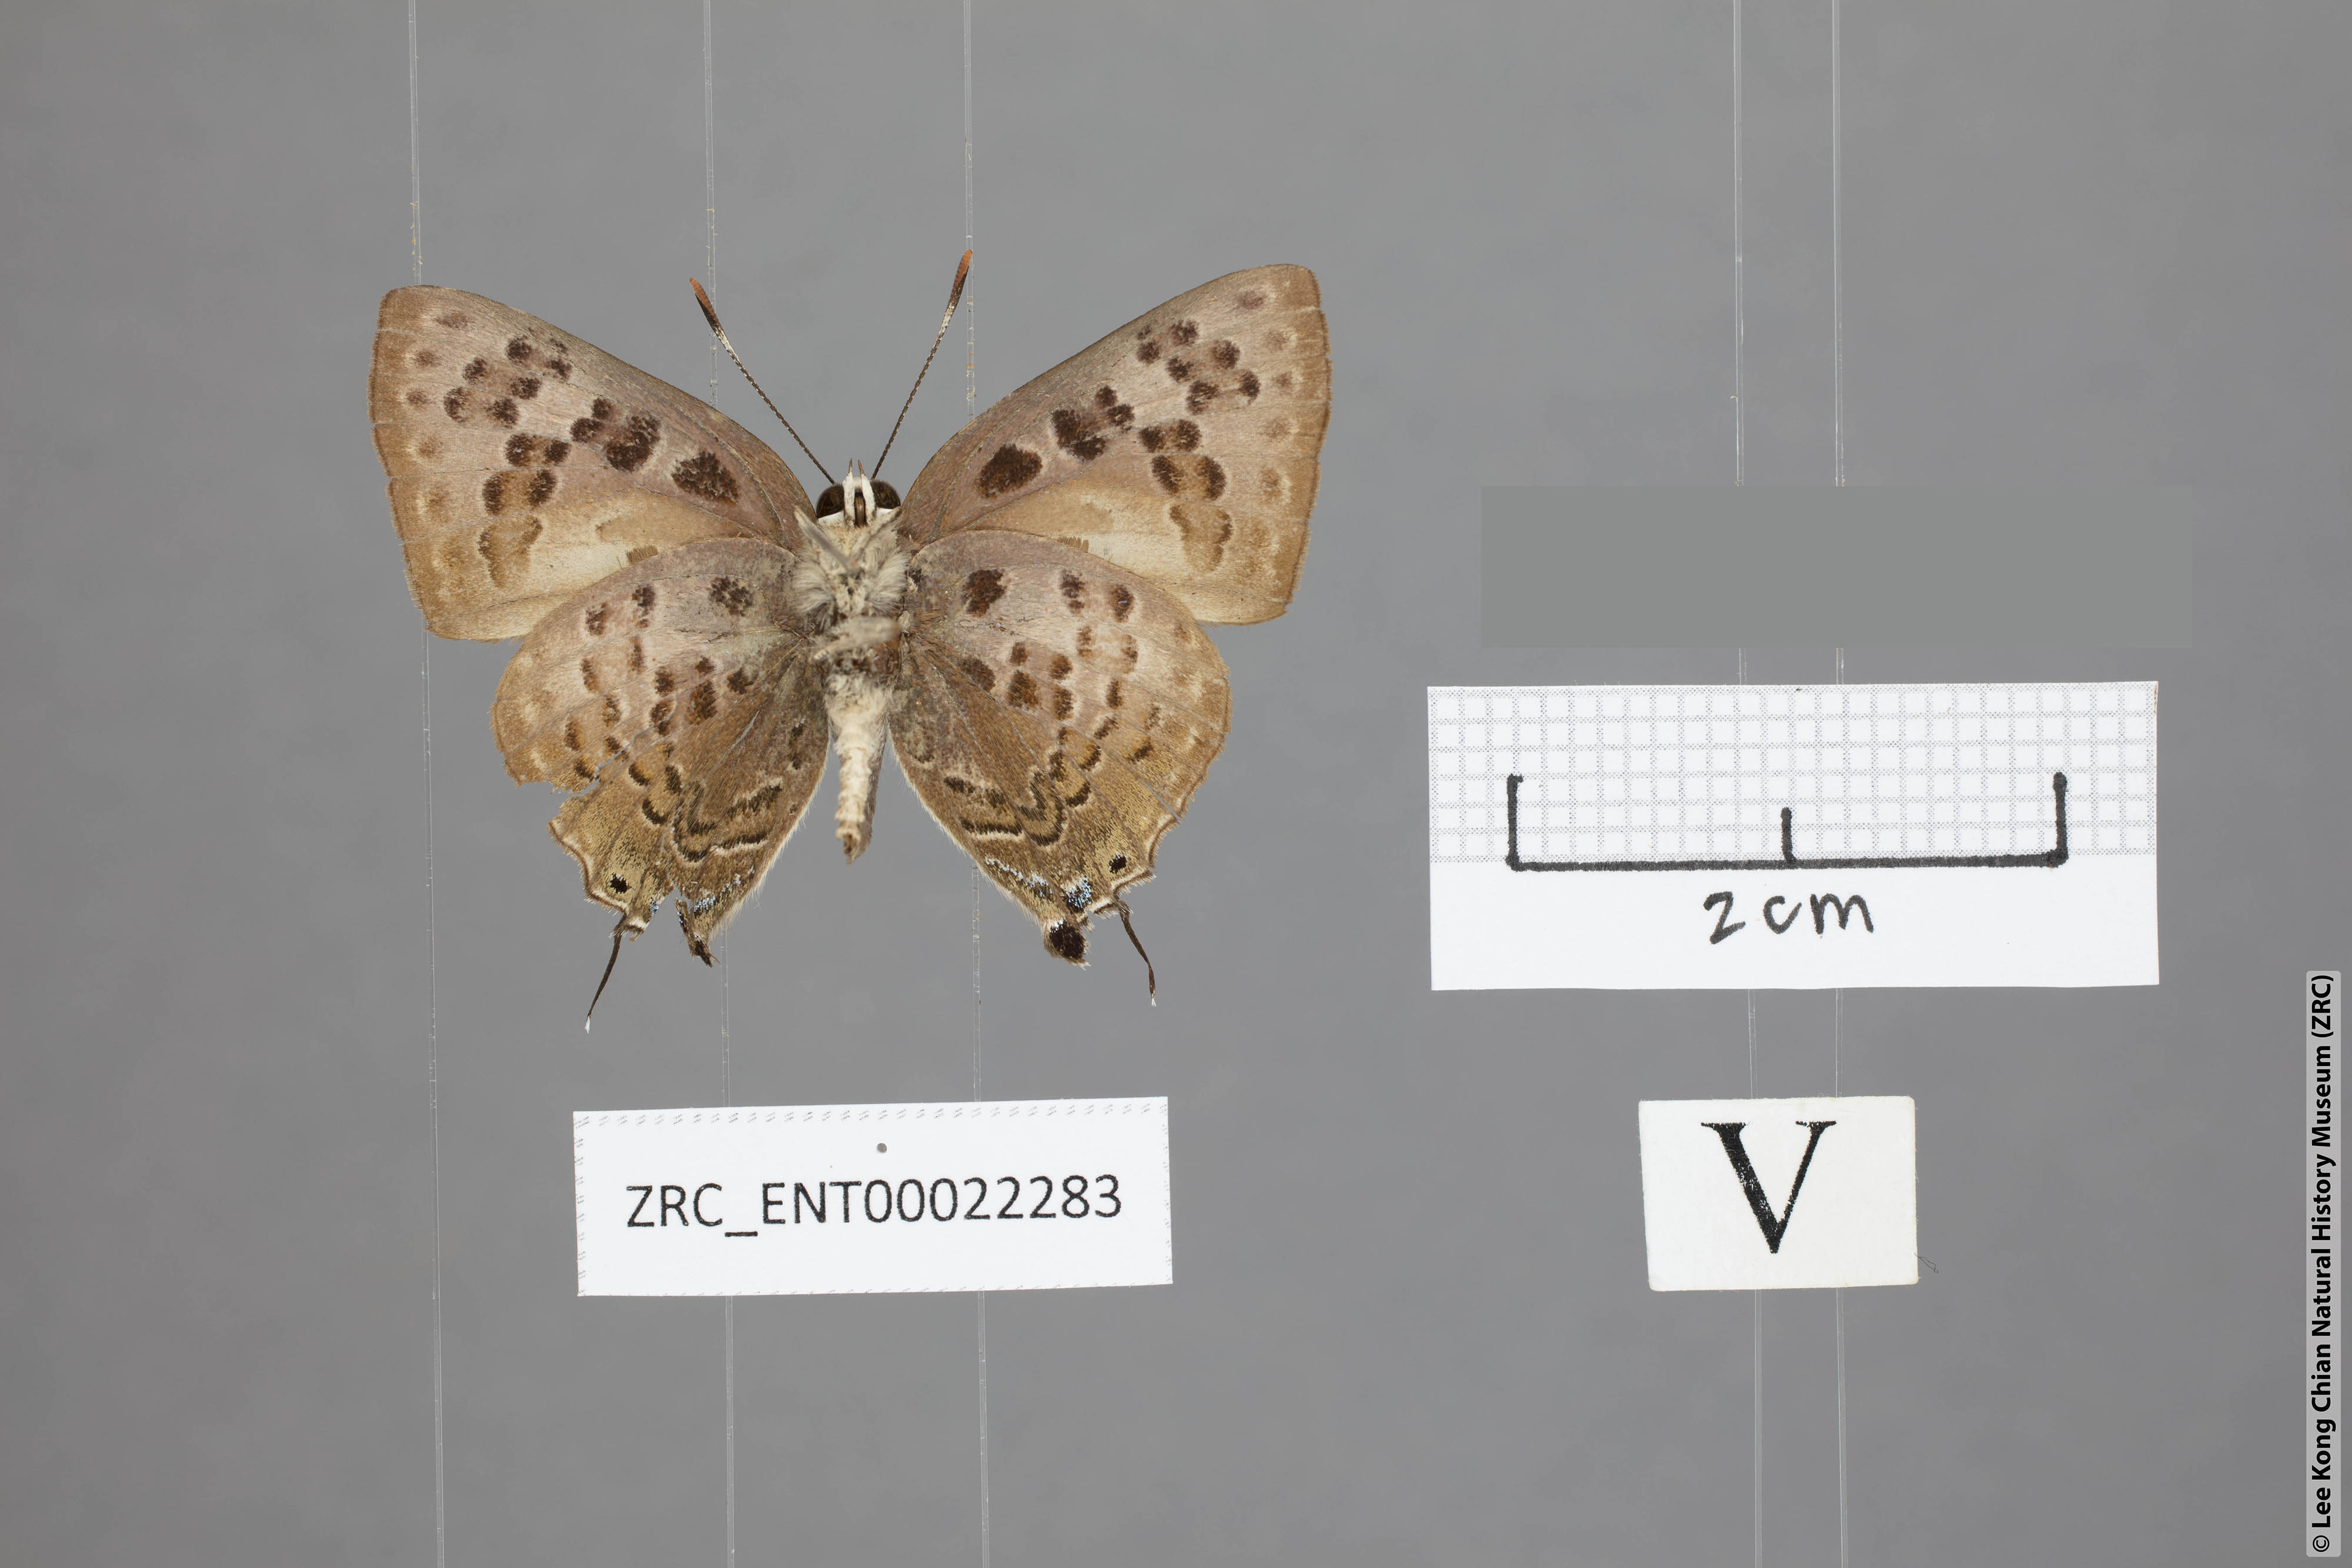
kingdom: Animalia
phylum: Arthropoda
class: Insecta
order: Lepidoptera
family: Lycaenidae
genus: Deudorix
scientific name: Deudorix smilis
